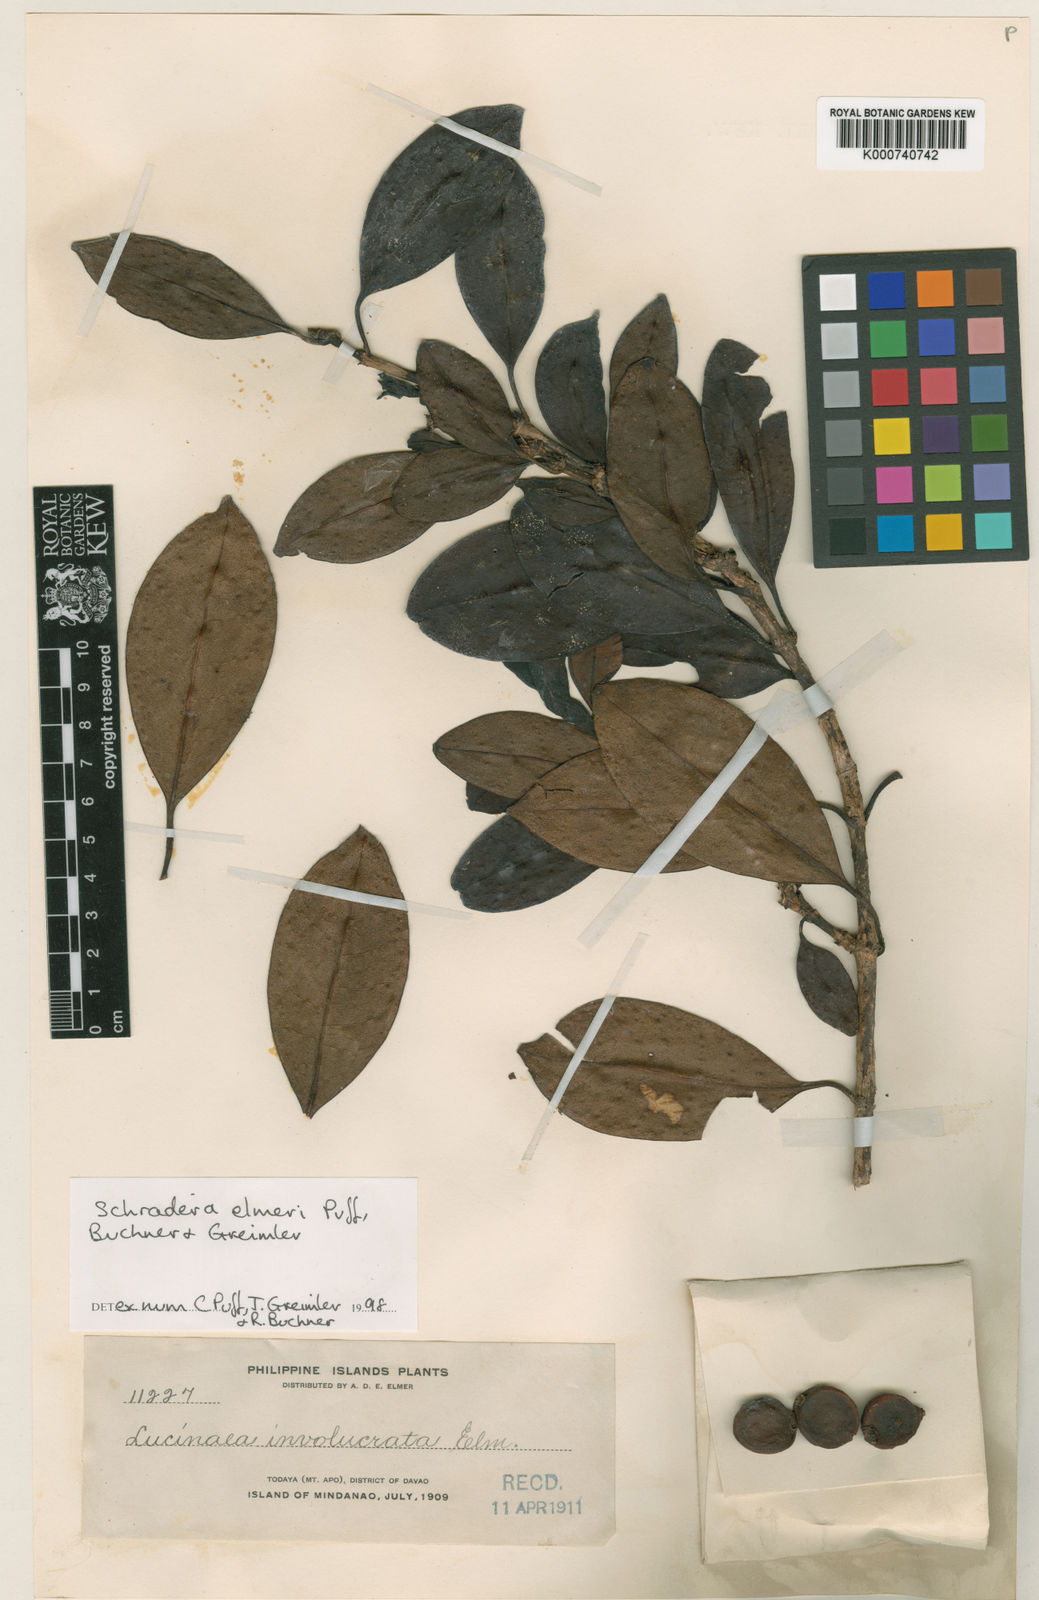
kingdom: Plantae
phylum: Tracheophyta
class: Magnoliopsida
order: Gentianales
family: Rubiaceae
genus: Schradera
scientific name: Schradera elmeri
